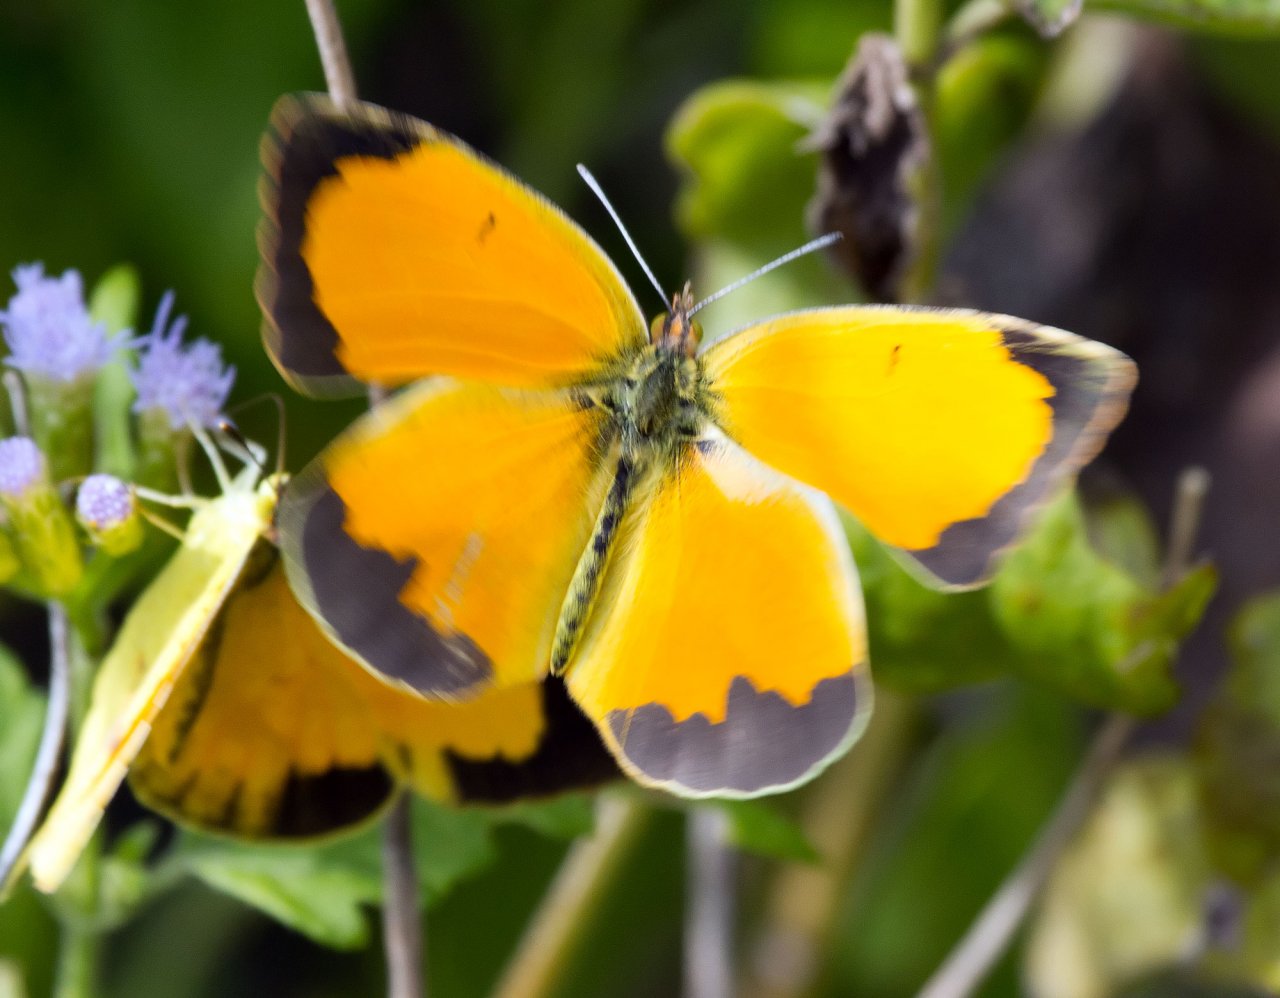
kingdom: Animalia
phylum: Arthropoda
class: Insecta
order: Lepidoptera
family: Pieridae
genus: Abaeis
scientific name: Abaeis nicippe
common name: Sleepy Orange
